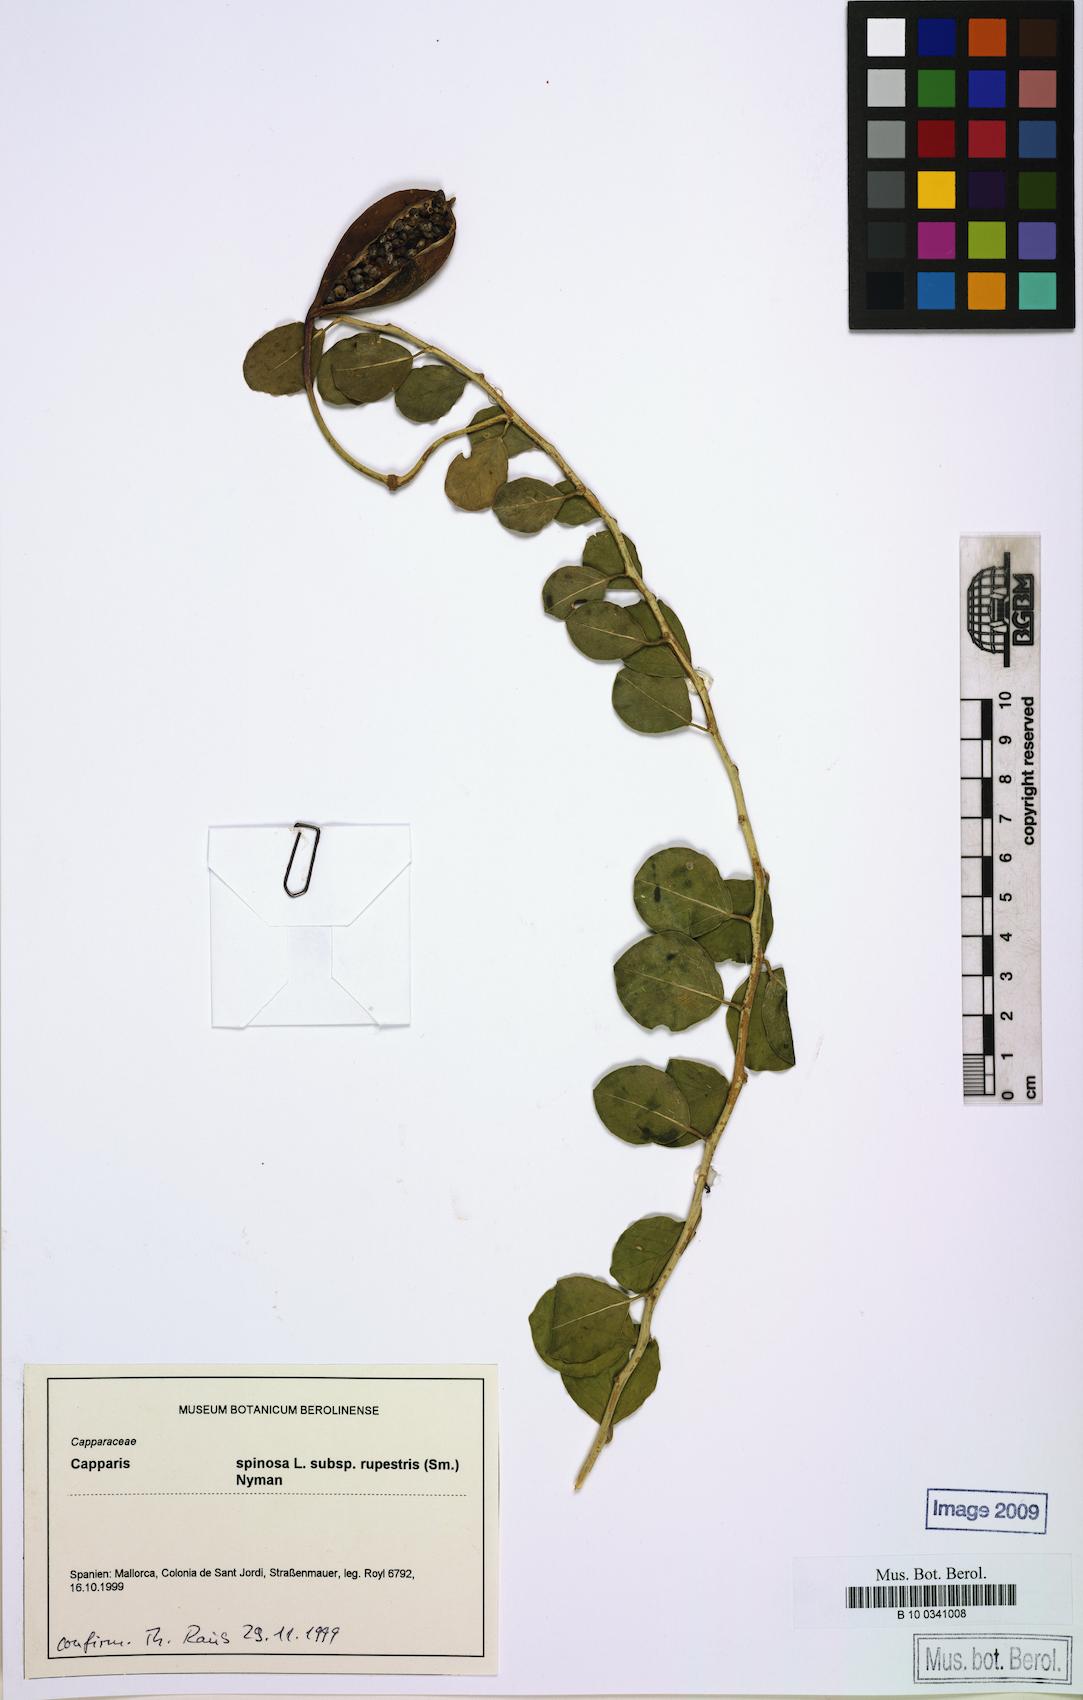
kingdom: Plantae
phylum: Tracheophyta
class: Magnoliopsida
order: Brassicales
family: Capparaceae
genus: Capparis
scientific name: Capparis spinosa
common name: Caper
